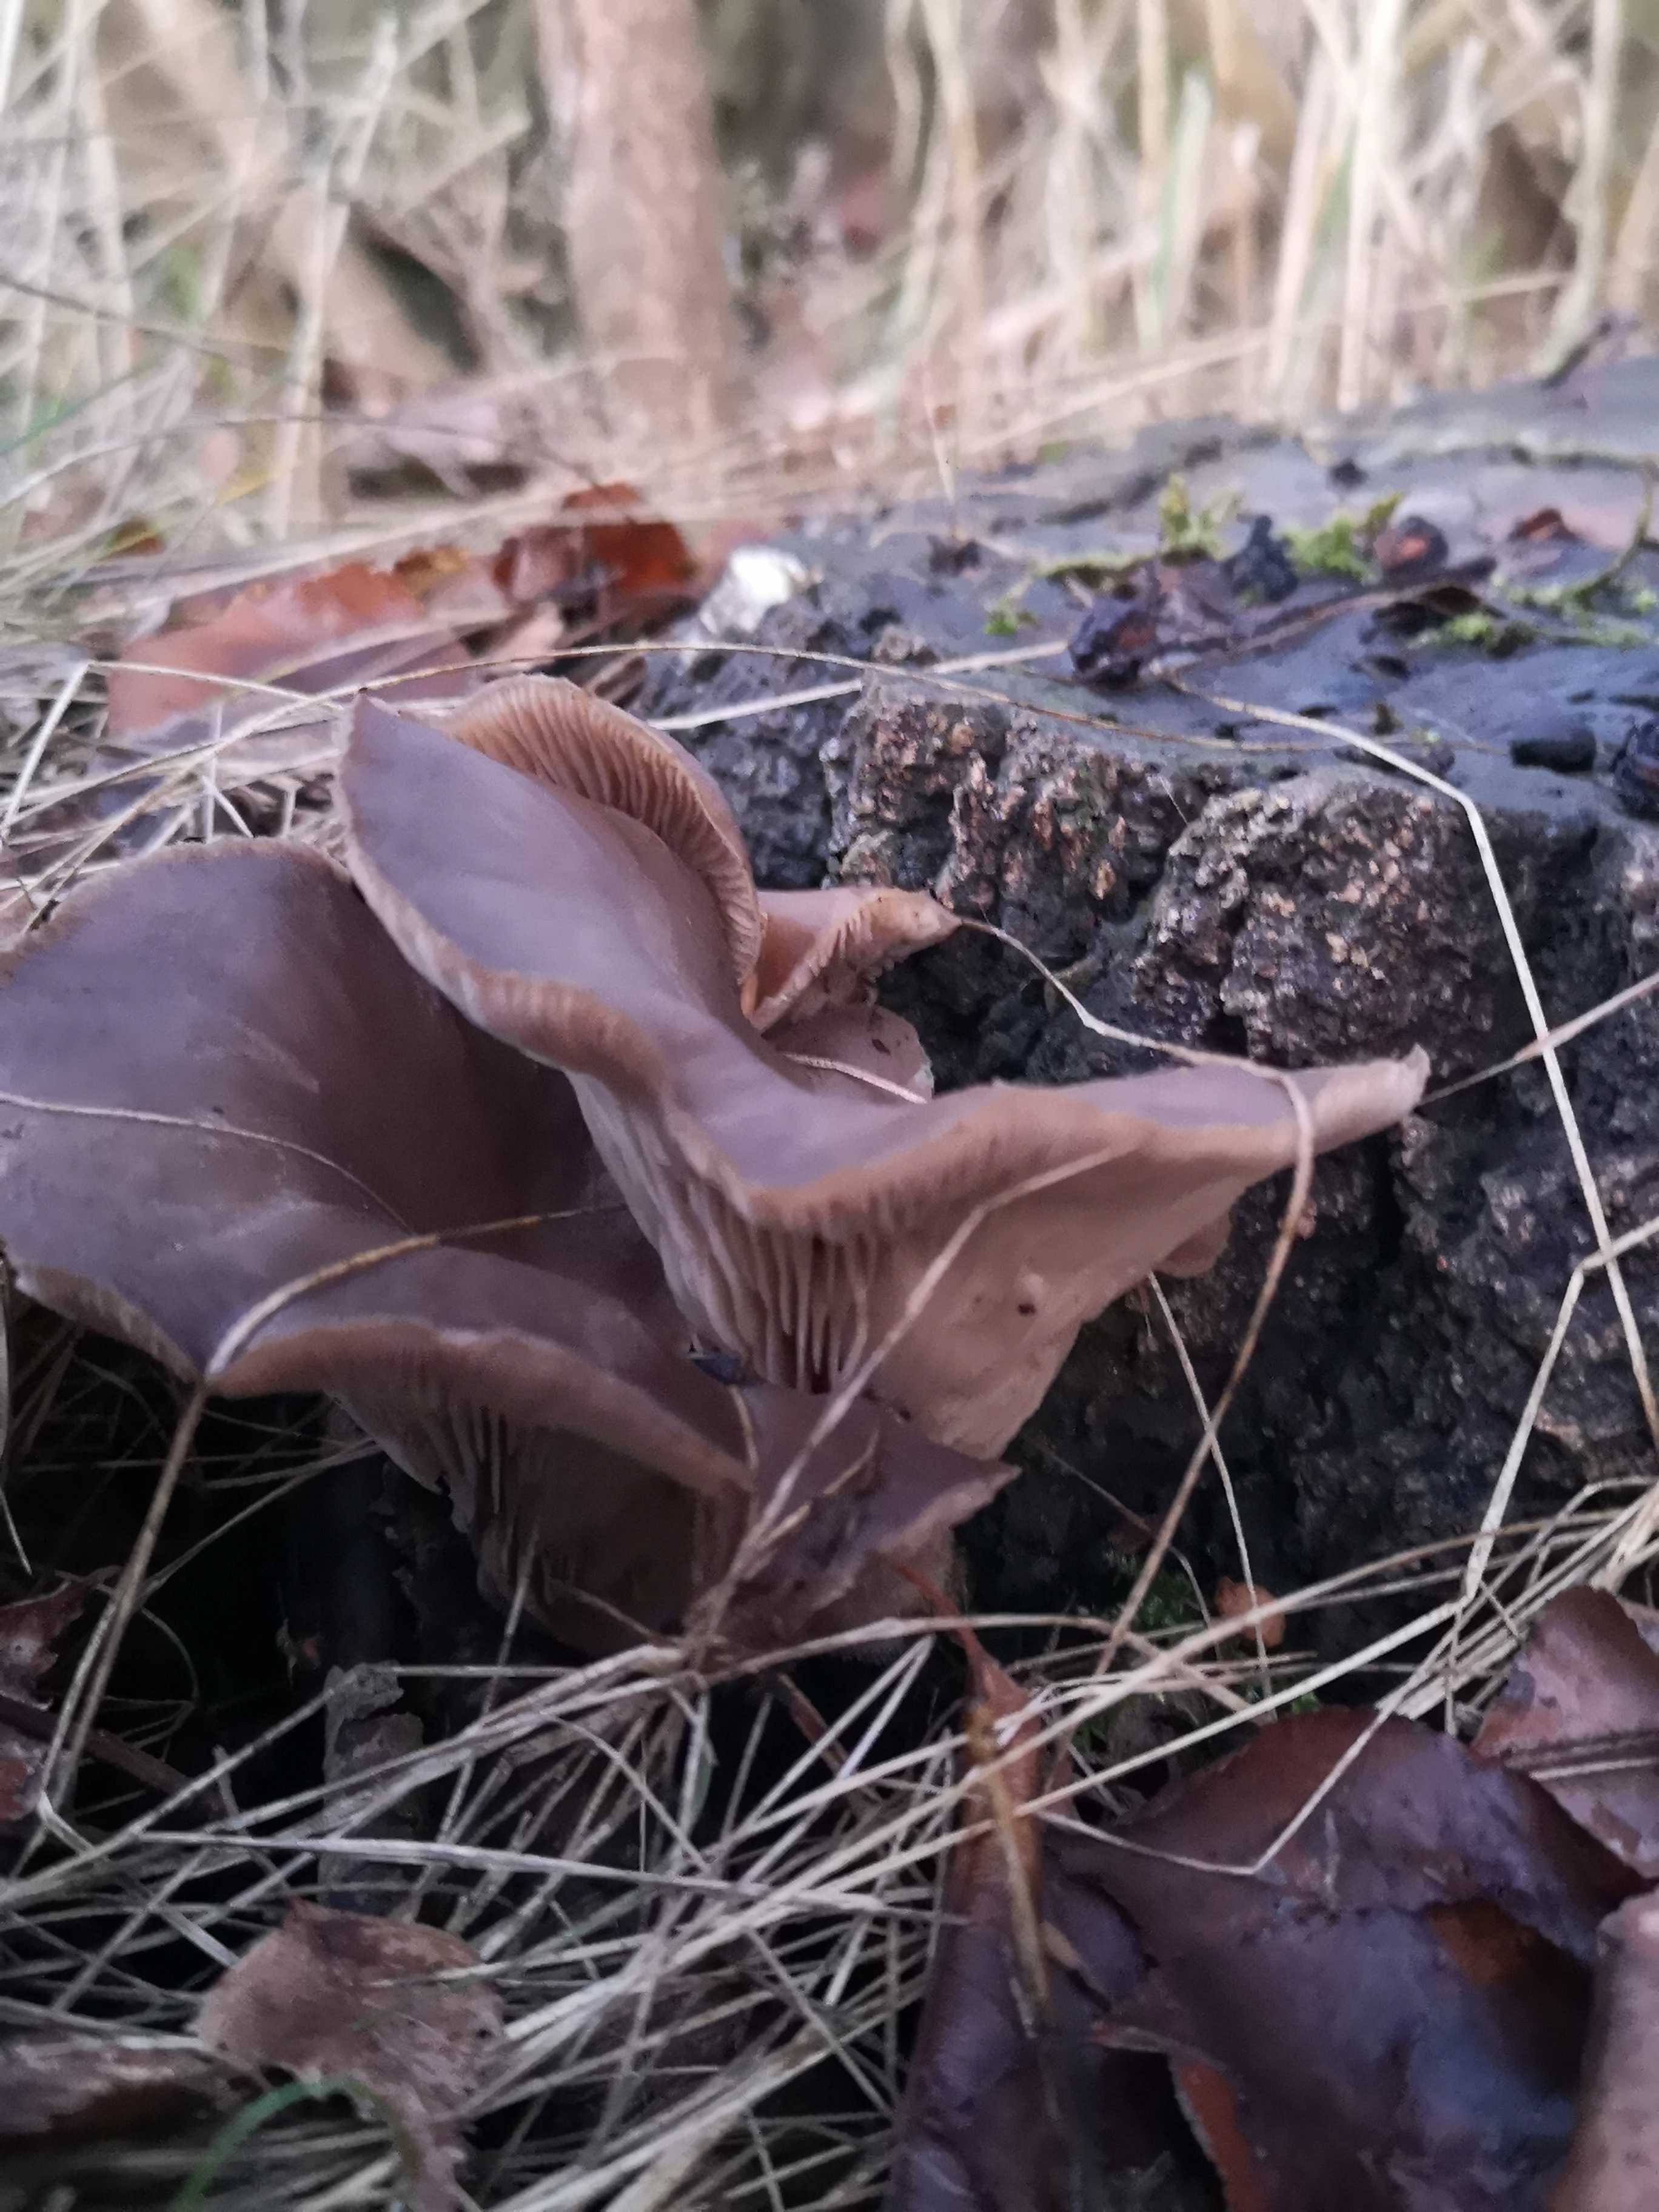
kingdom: Fungi
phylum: Basidiomycota
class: Agaricomycetes
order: Agaricales
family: Pleurotaceae
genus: Pleurotus
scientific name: Pleurotus ostreatus
